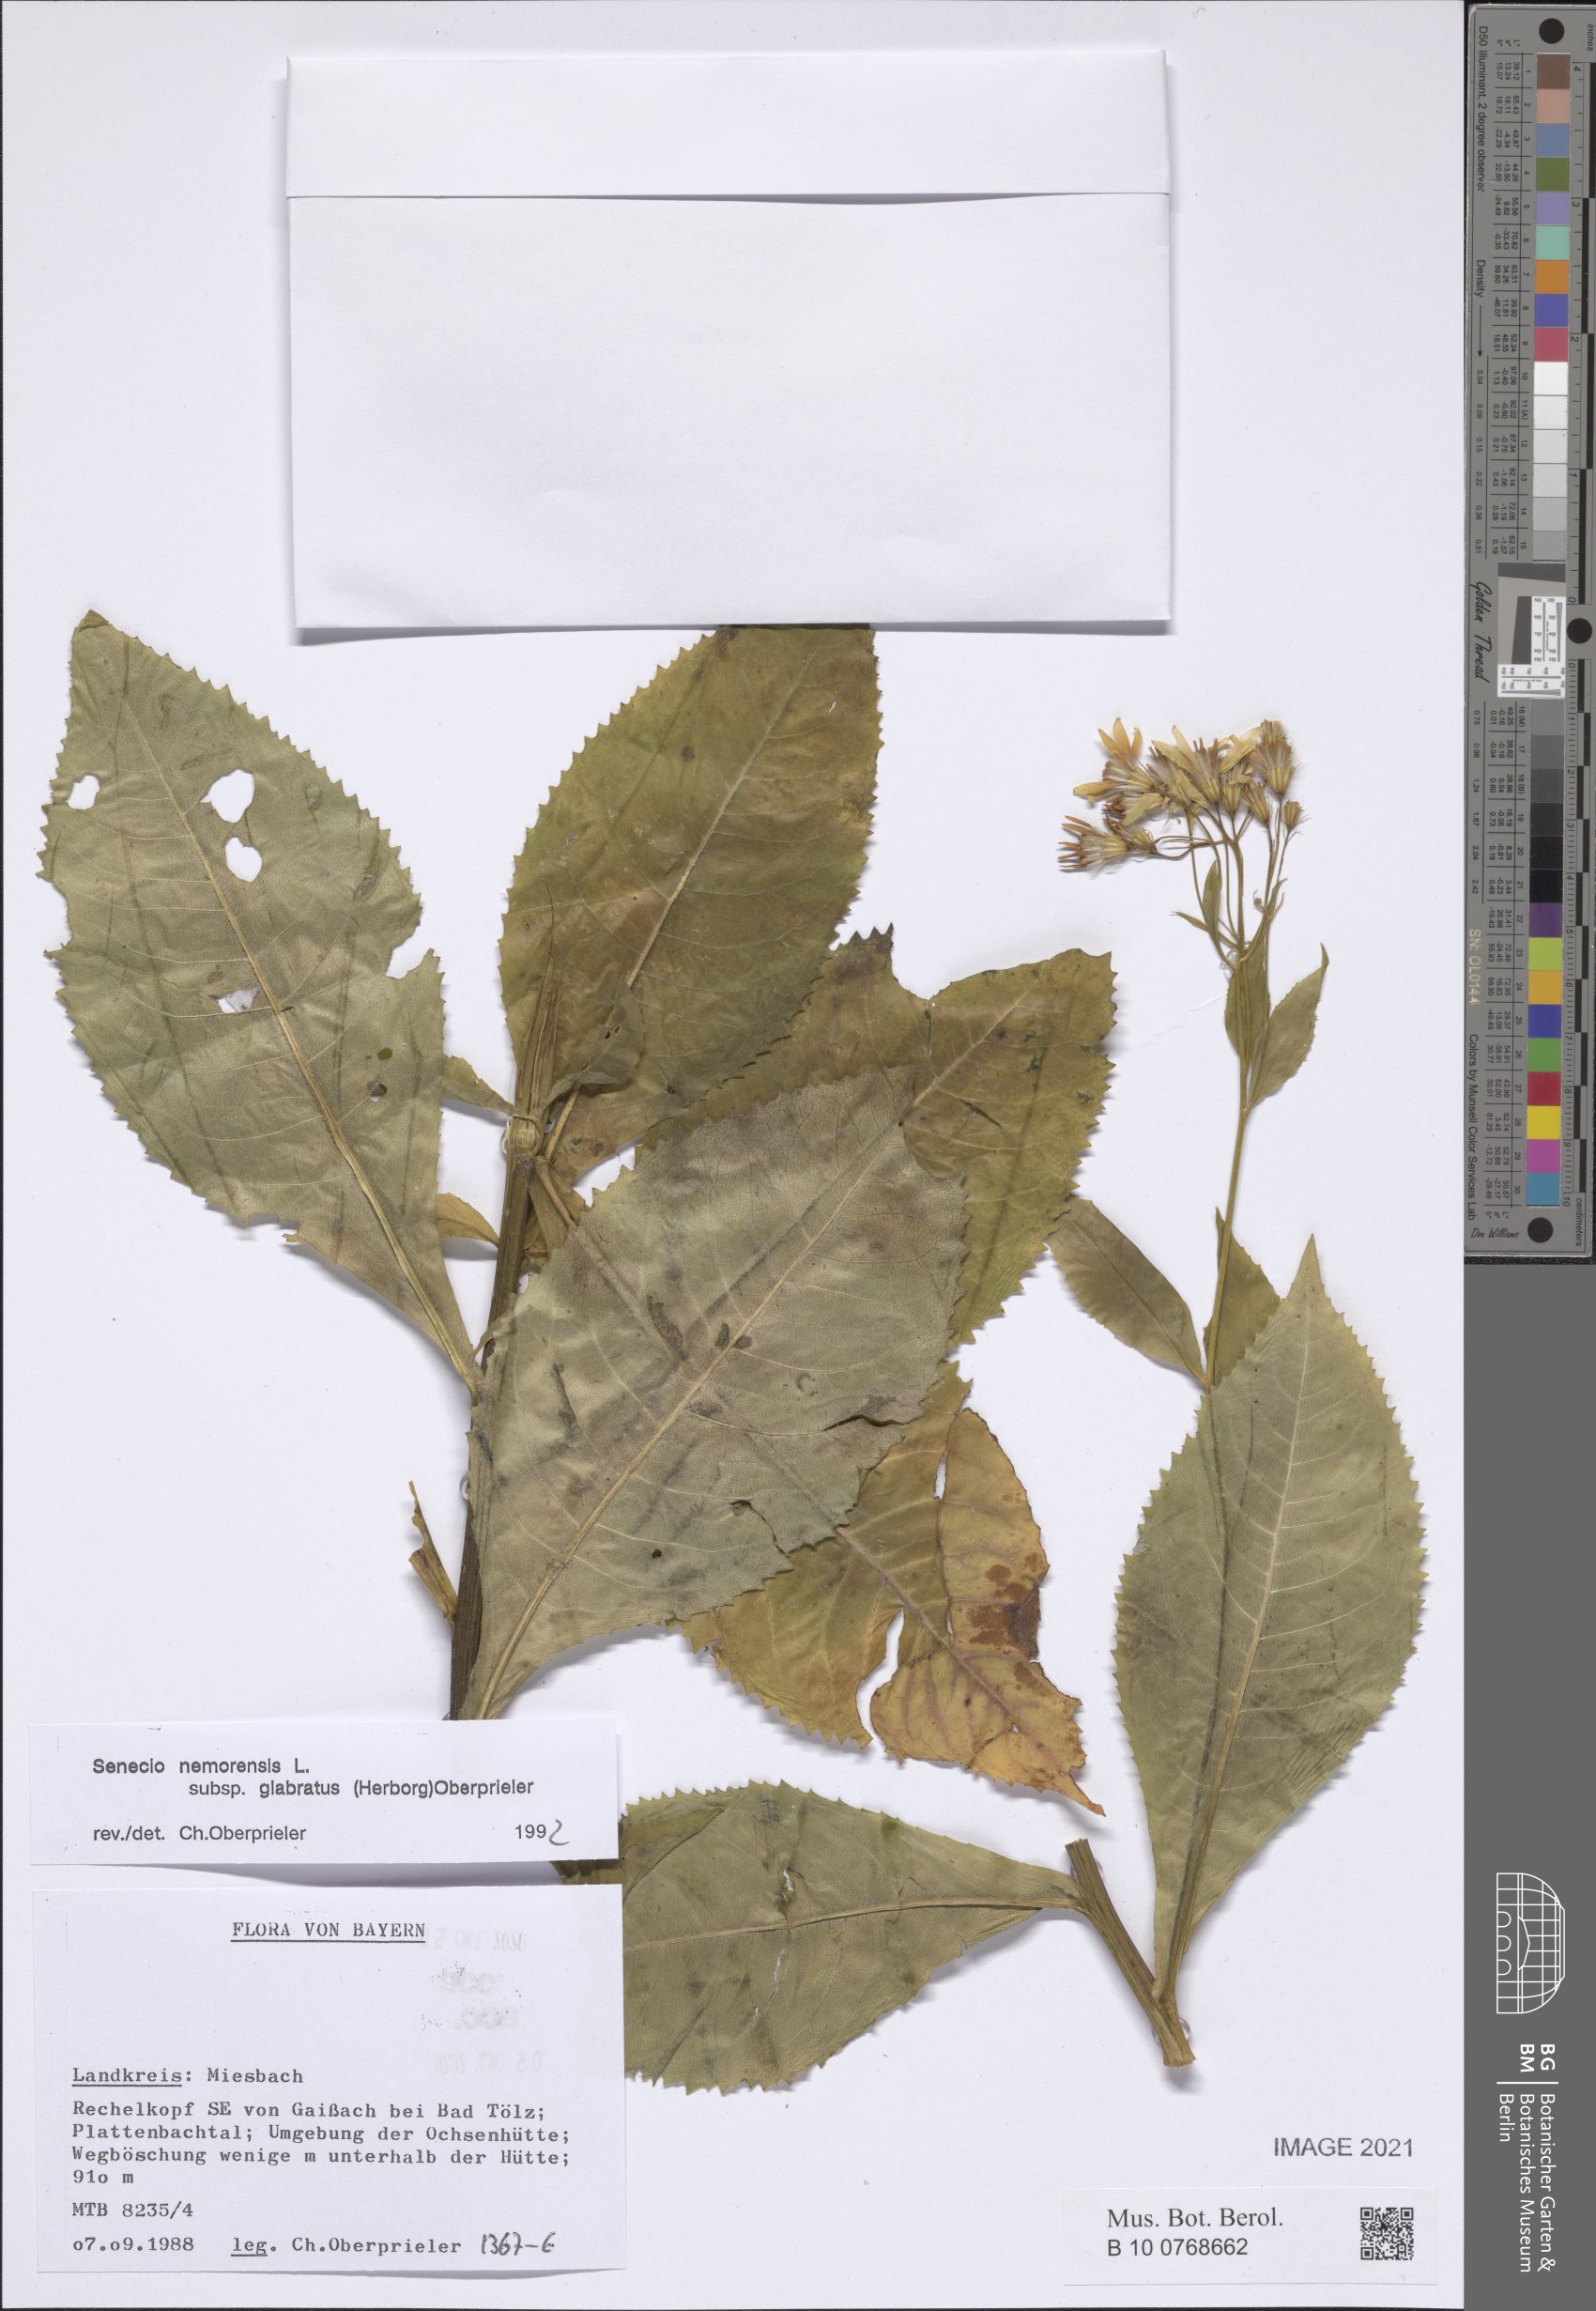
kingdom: Plantae
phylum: Tracheophyta
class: Magnoliopsida
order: Asterales
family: Asteraceae
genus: Senecio
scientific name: Senecio germanicus
